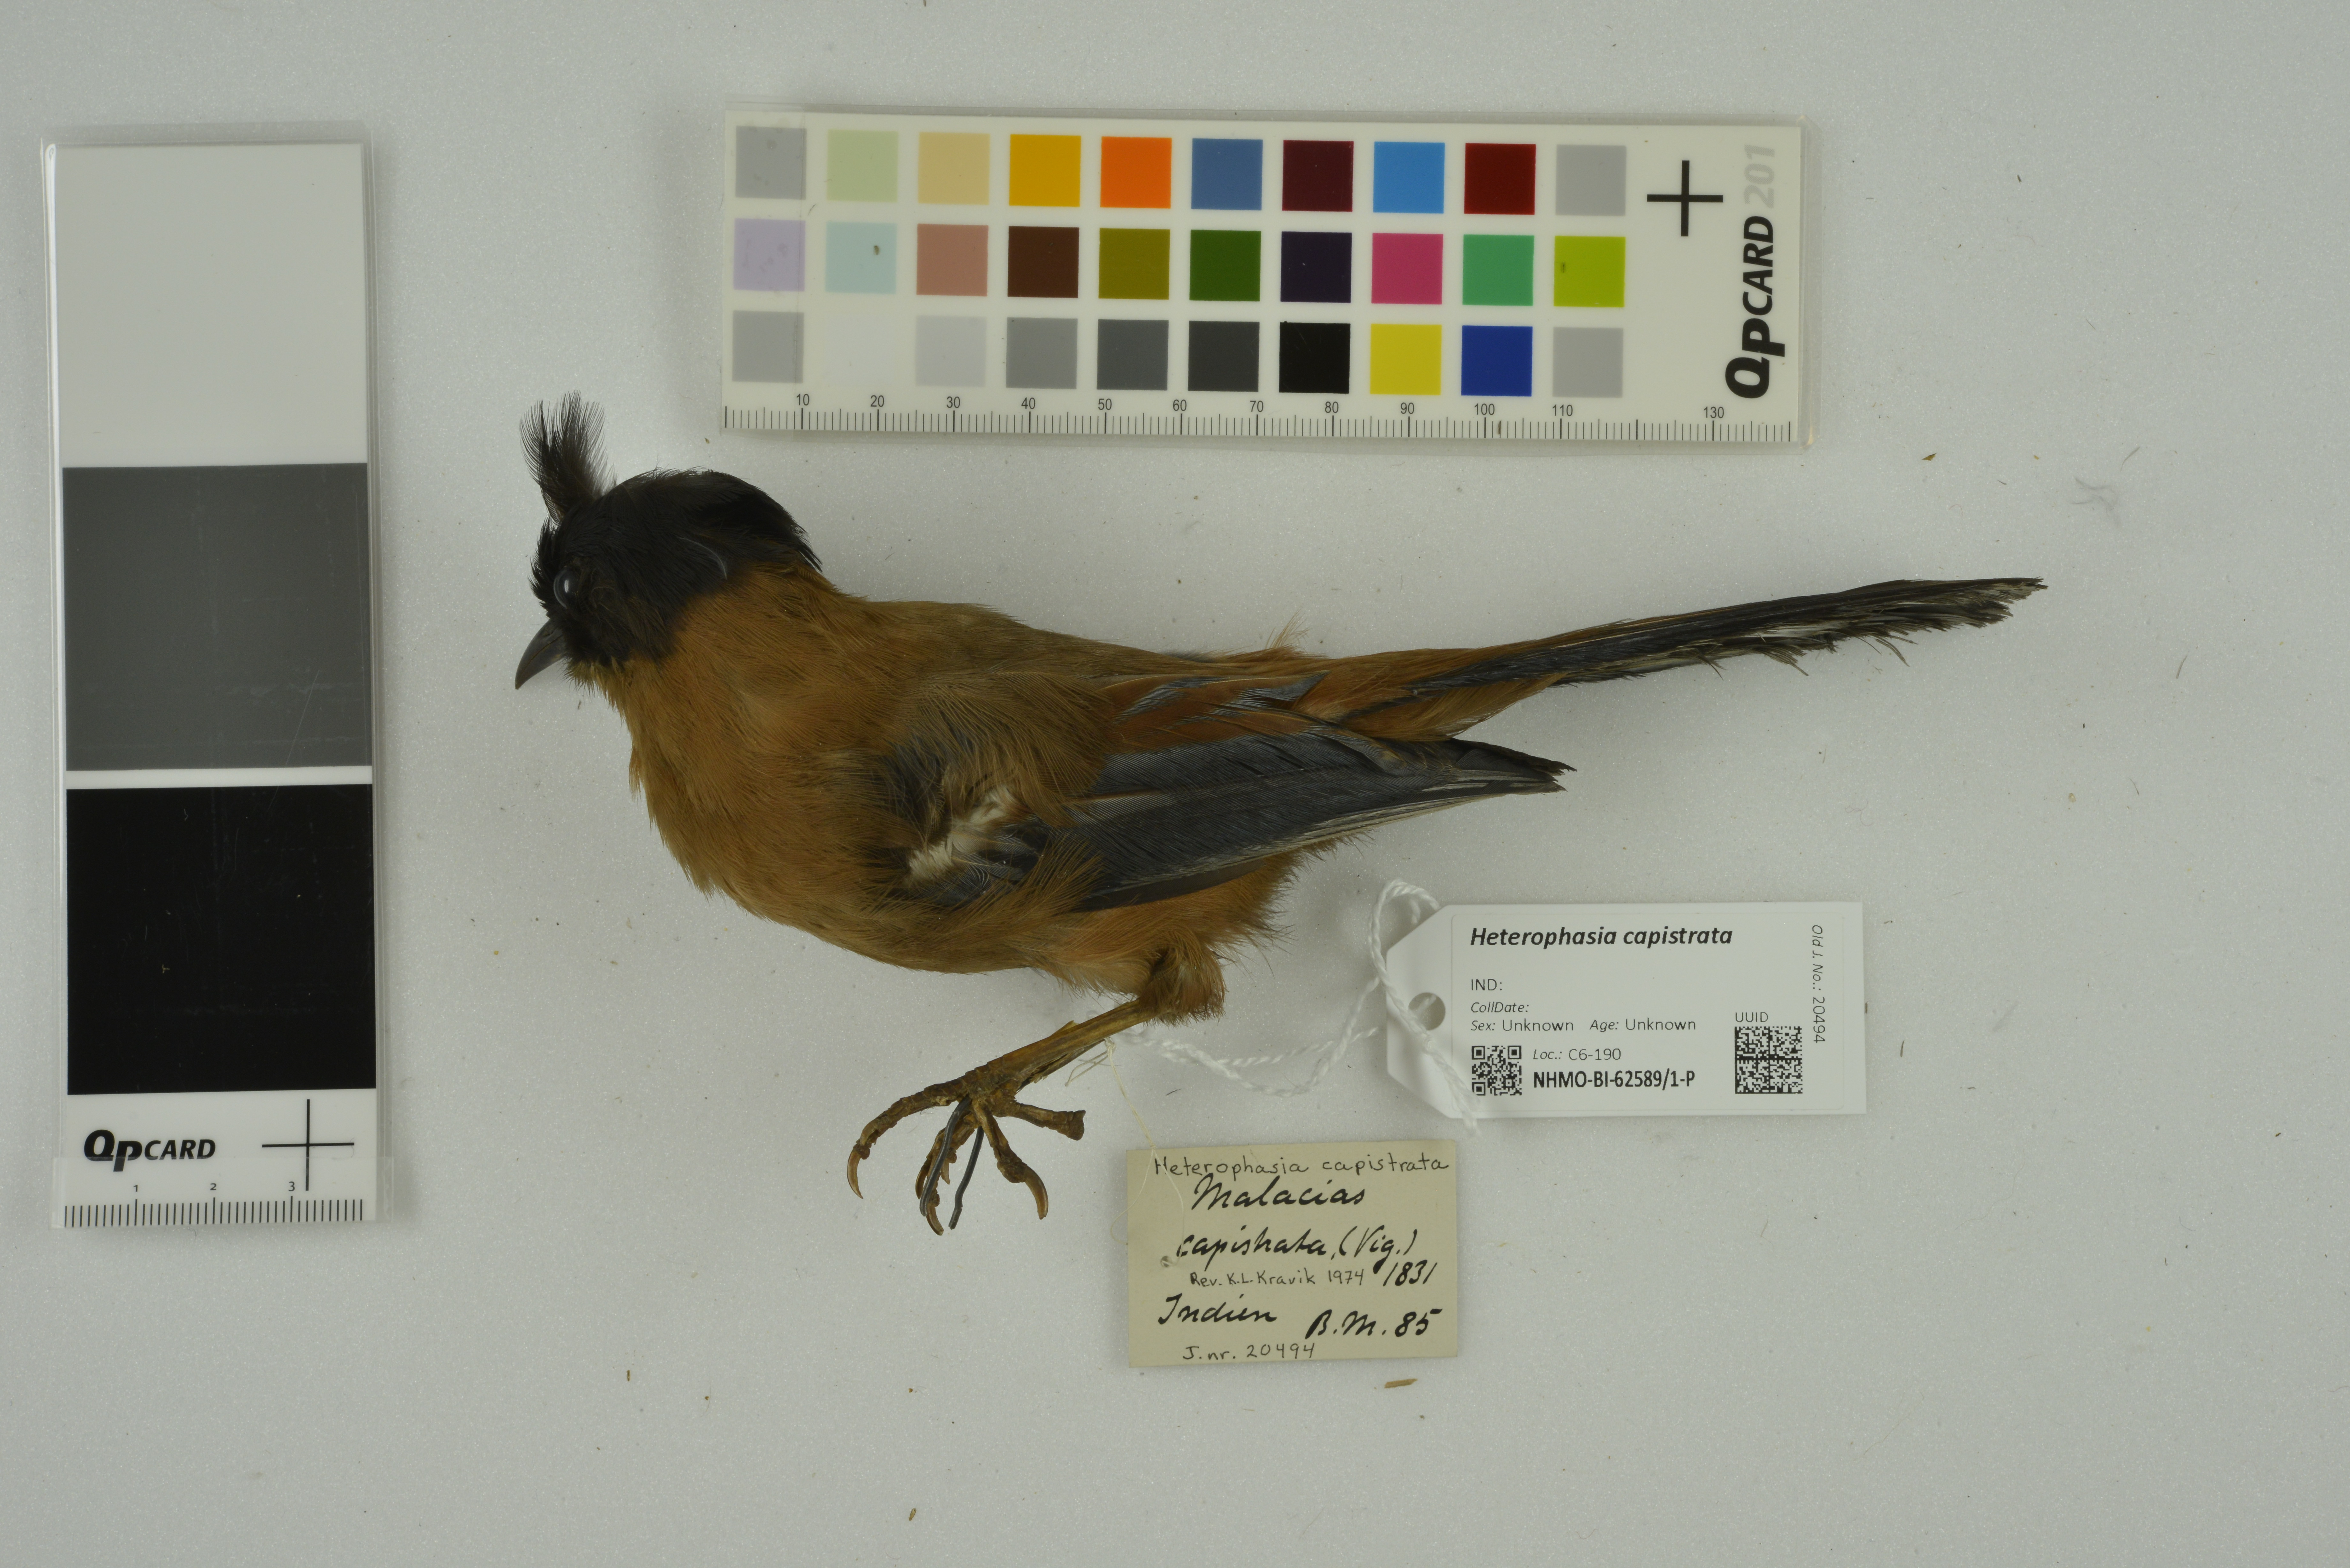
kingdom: Animalia
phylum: Chordata
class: Aves
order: Passeriformes
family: Leiothrichidae
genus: Heterophasia
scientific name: Heterophasia capistrata
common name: Rufous sibia
